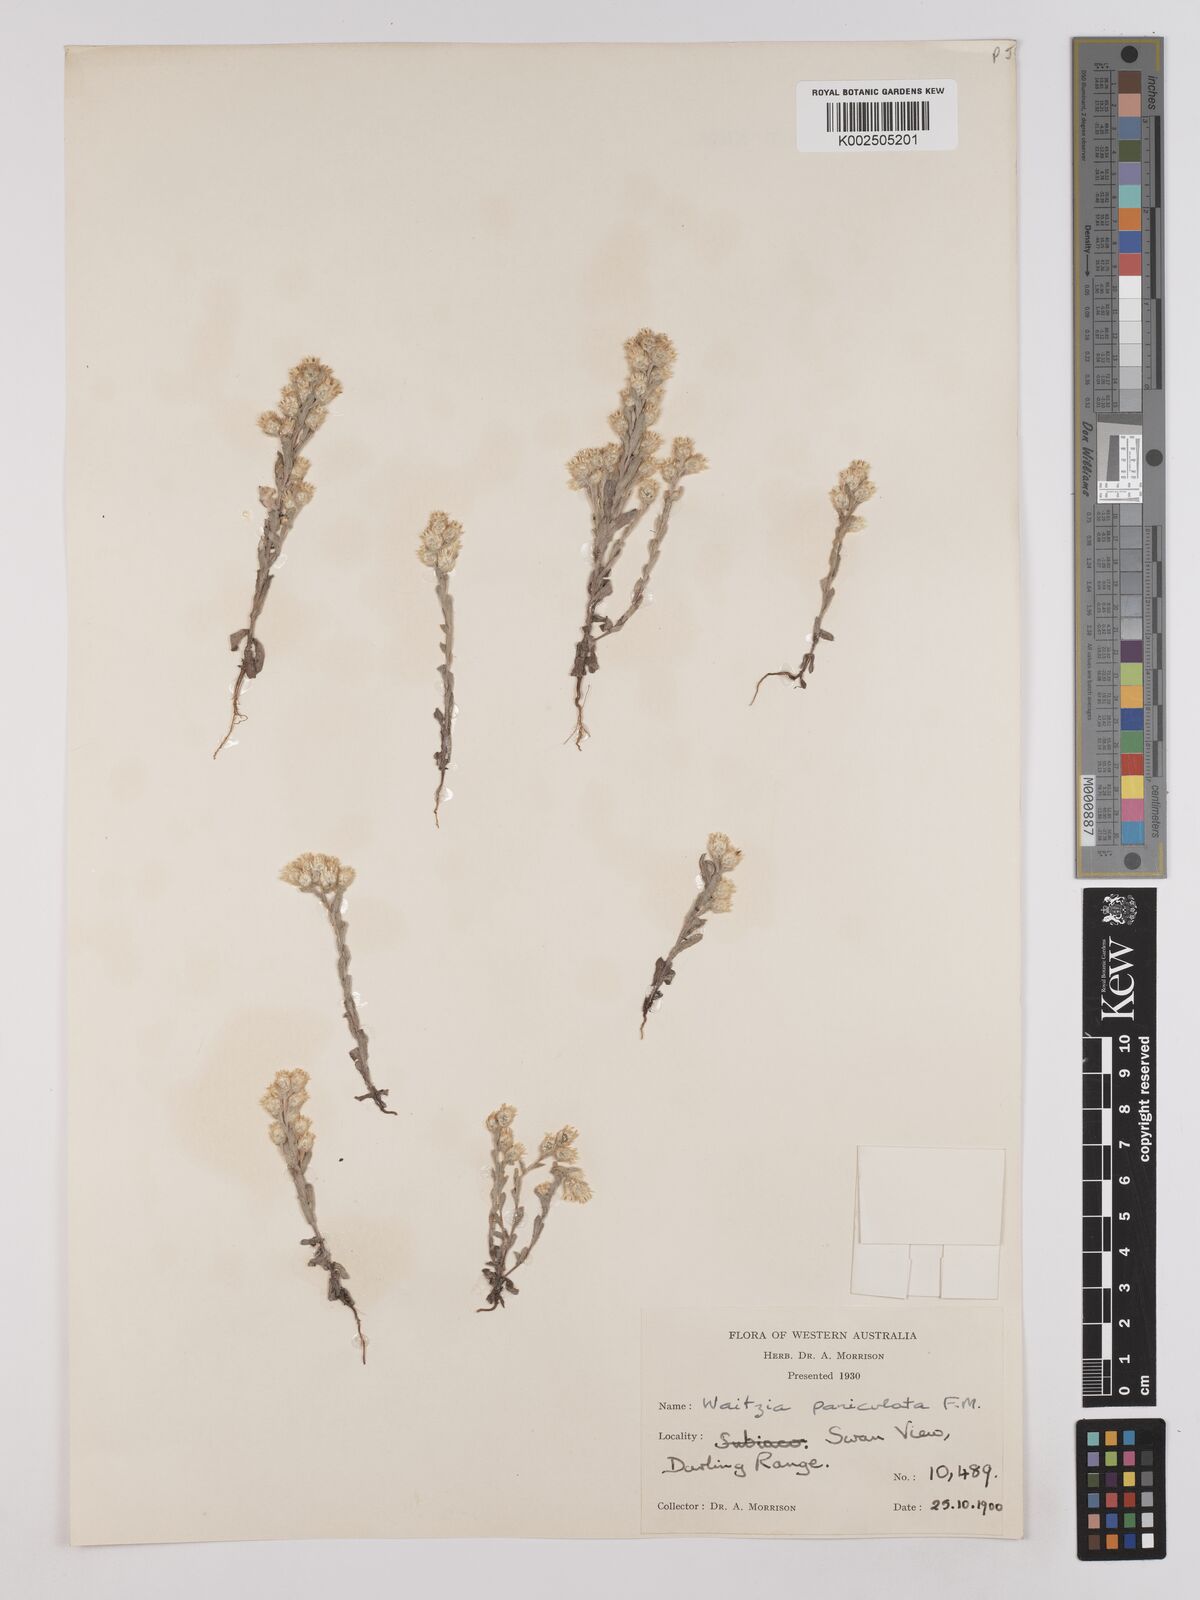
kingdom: Plantae
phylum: Tracheophyta
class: Magnoliopsida
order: Asterales
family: Asteraceae
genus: Pterochaeta
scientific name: Pterochaeta paniculata
